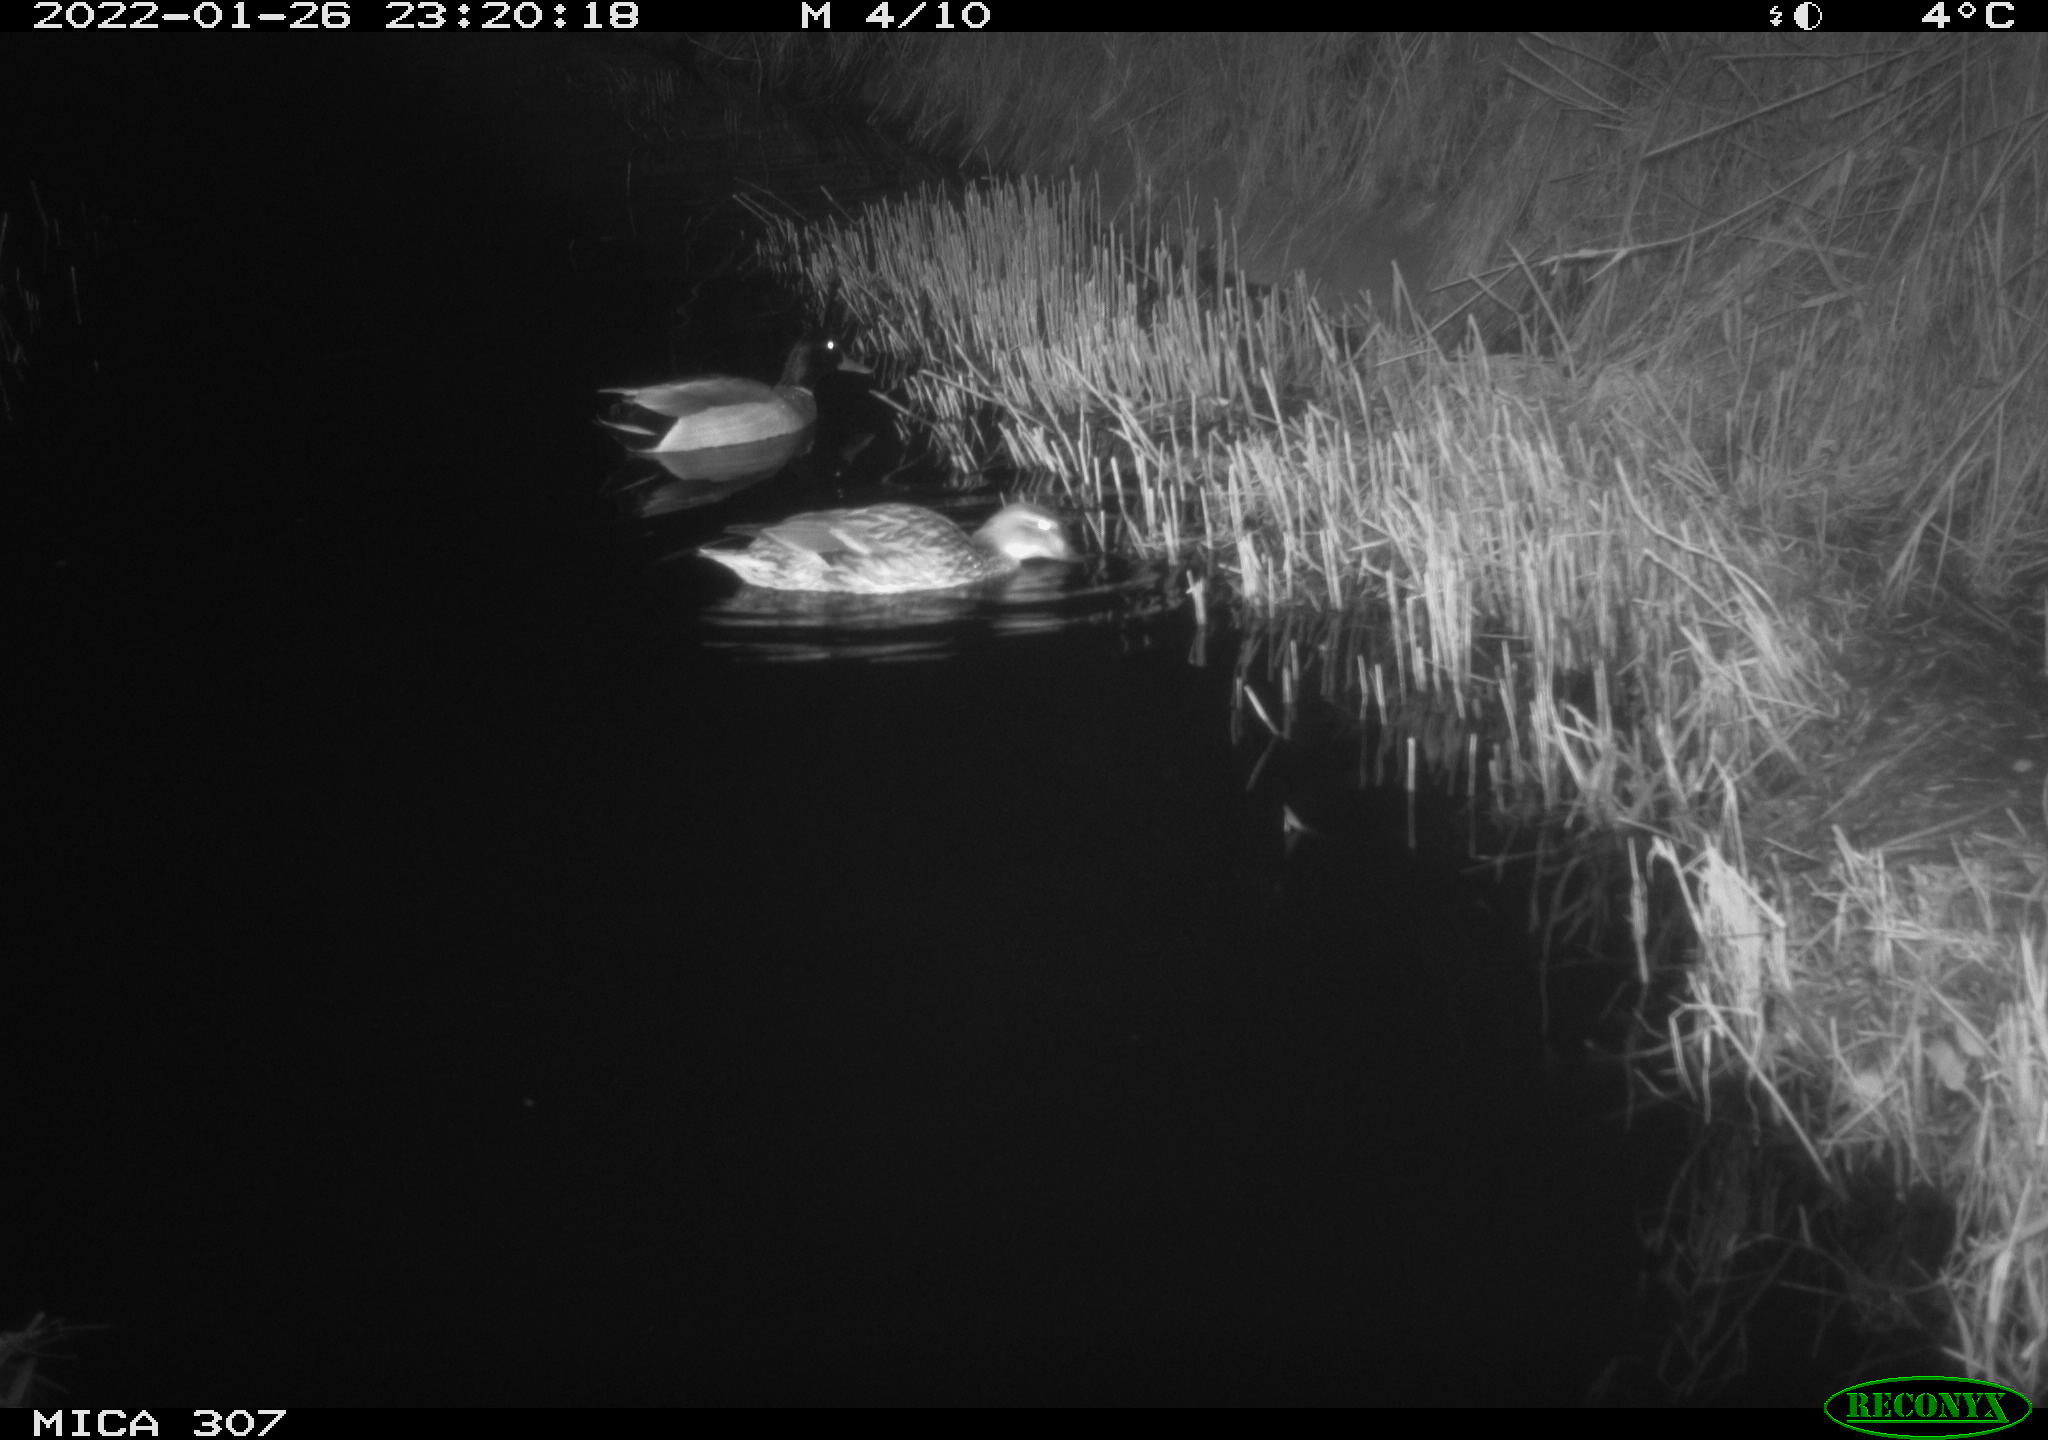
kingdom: Animalia
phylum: Chordata
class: Aves
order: Anseriformes
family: Anatidae
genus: Anas
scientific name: Anas
